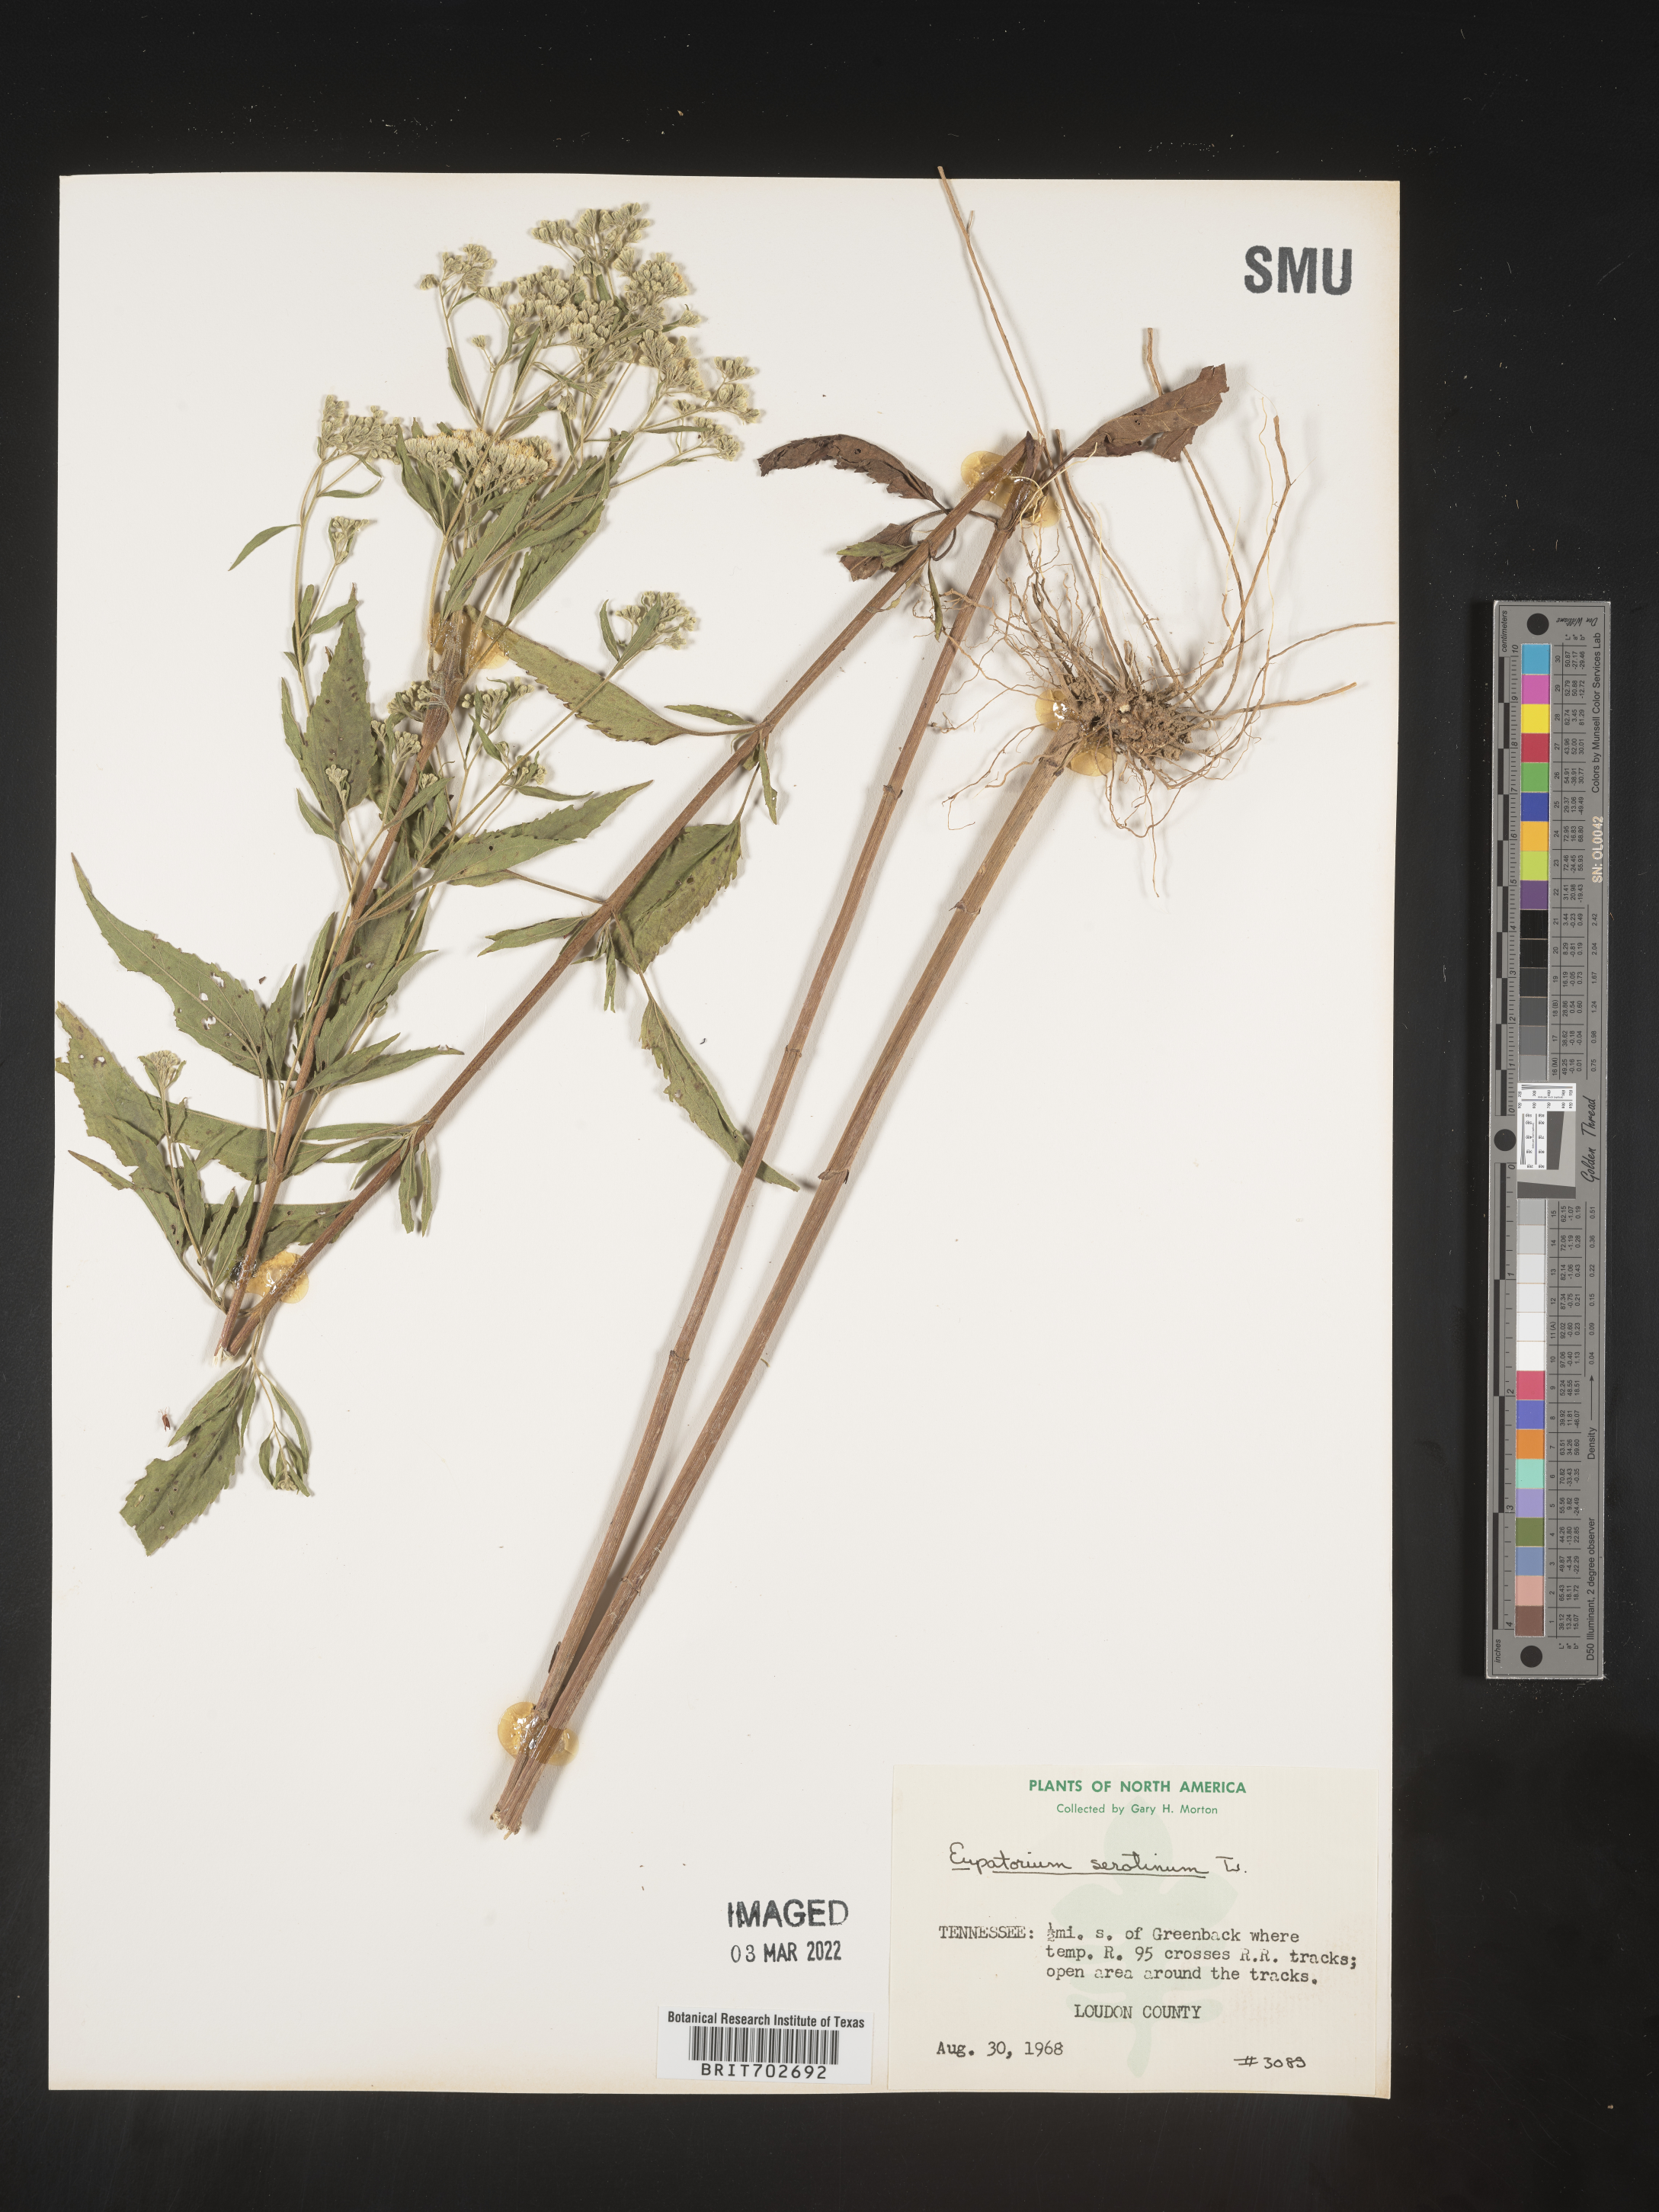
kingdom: Plantae
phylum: Tracheophyta
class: Magnoliopsida
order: Asterales
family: Asteraceae
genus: Eupatorium
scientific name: Eupatorium serotinum
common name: Late boneset
